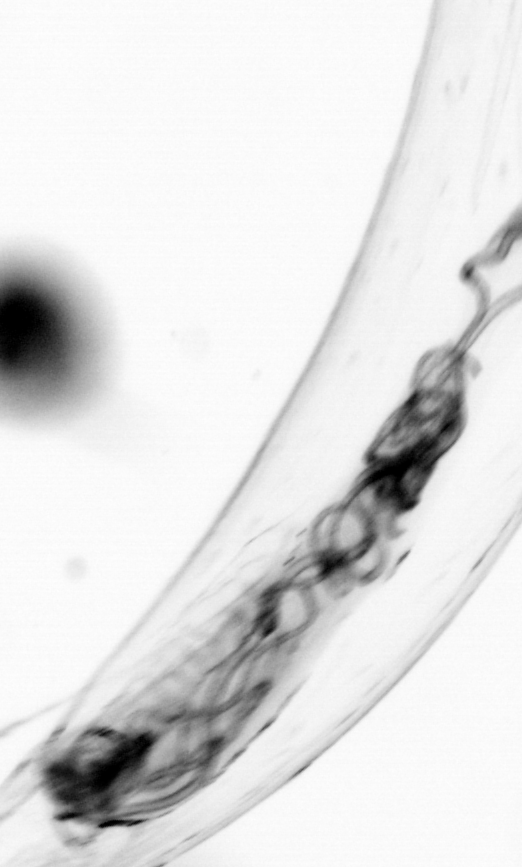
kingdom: Animalia
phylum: Chaetognatha
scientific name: Chaetognatha
